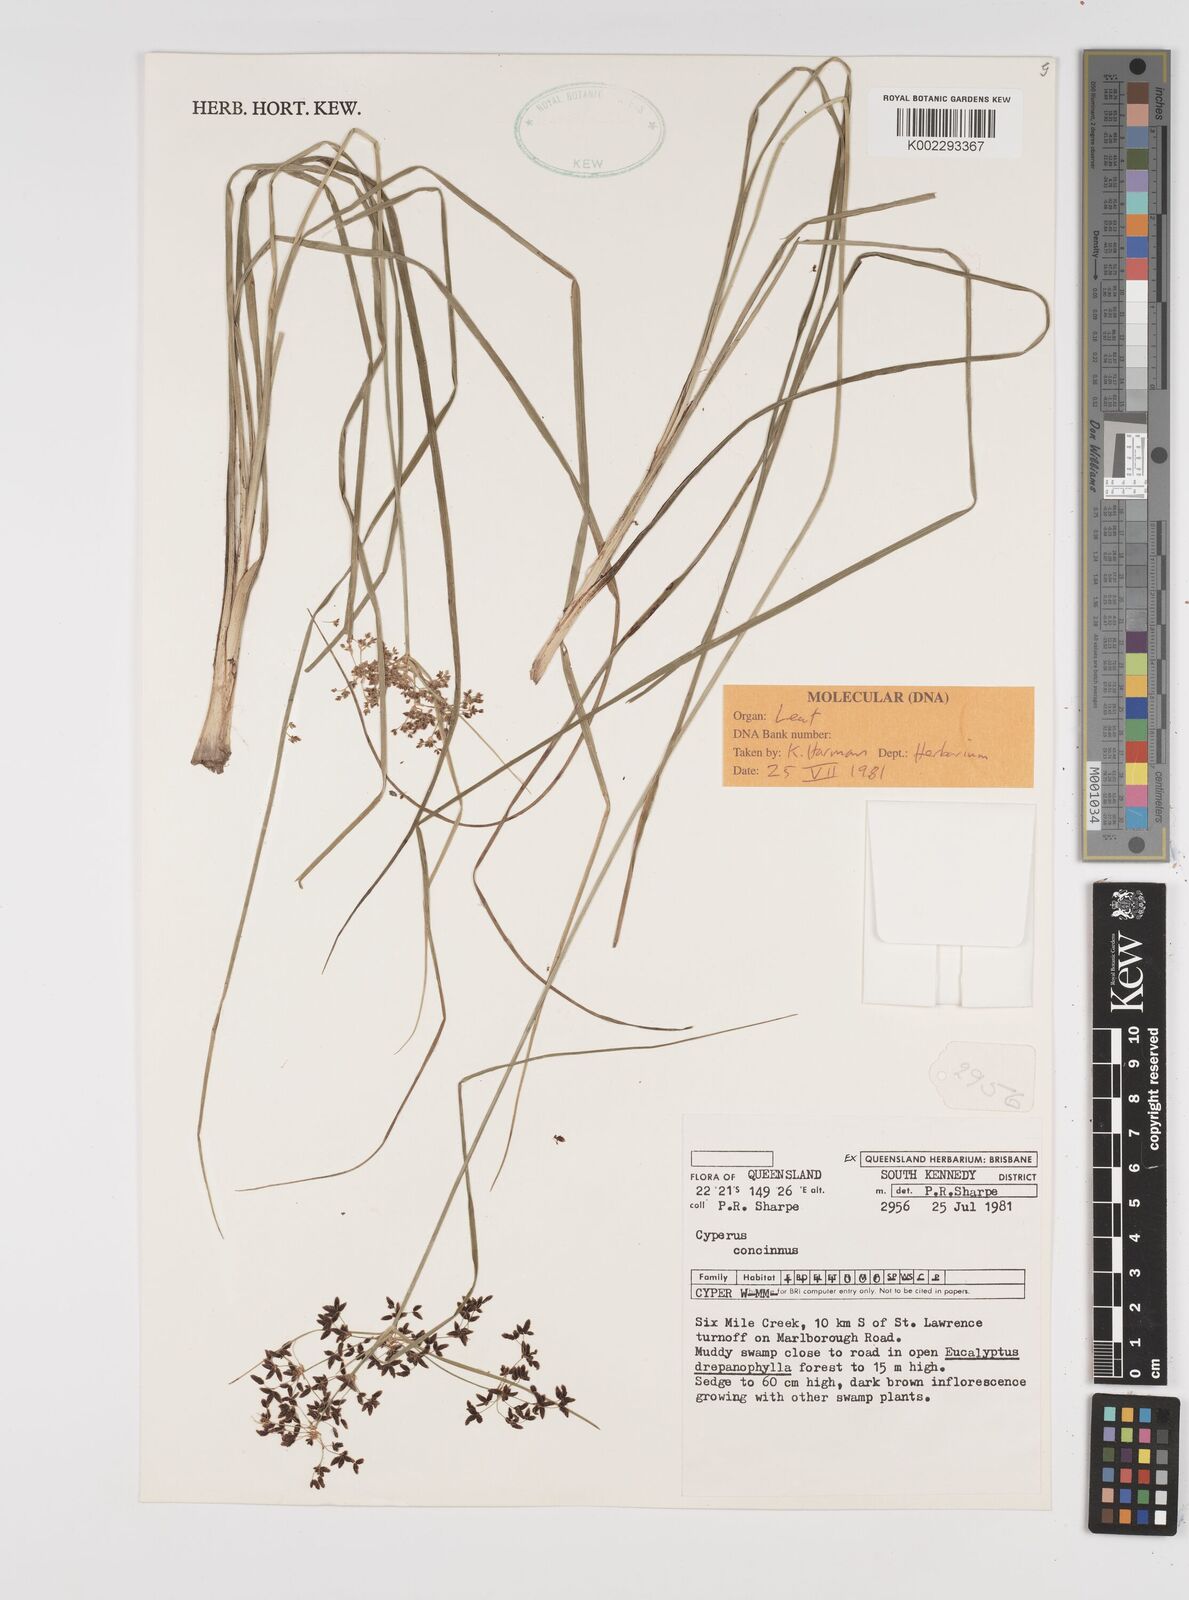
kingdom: Plantae
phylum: Tracheophyta
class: Liliopsida
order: Poales
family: Cyperaceae
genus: Cyperus
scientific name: Cyperus concinnus
